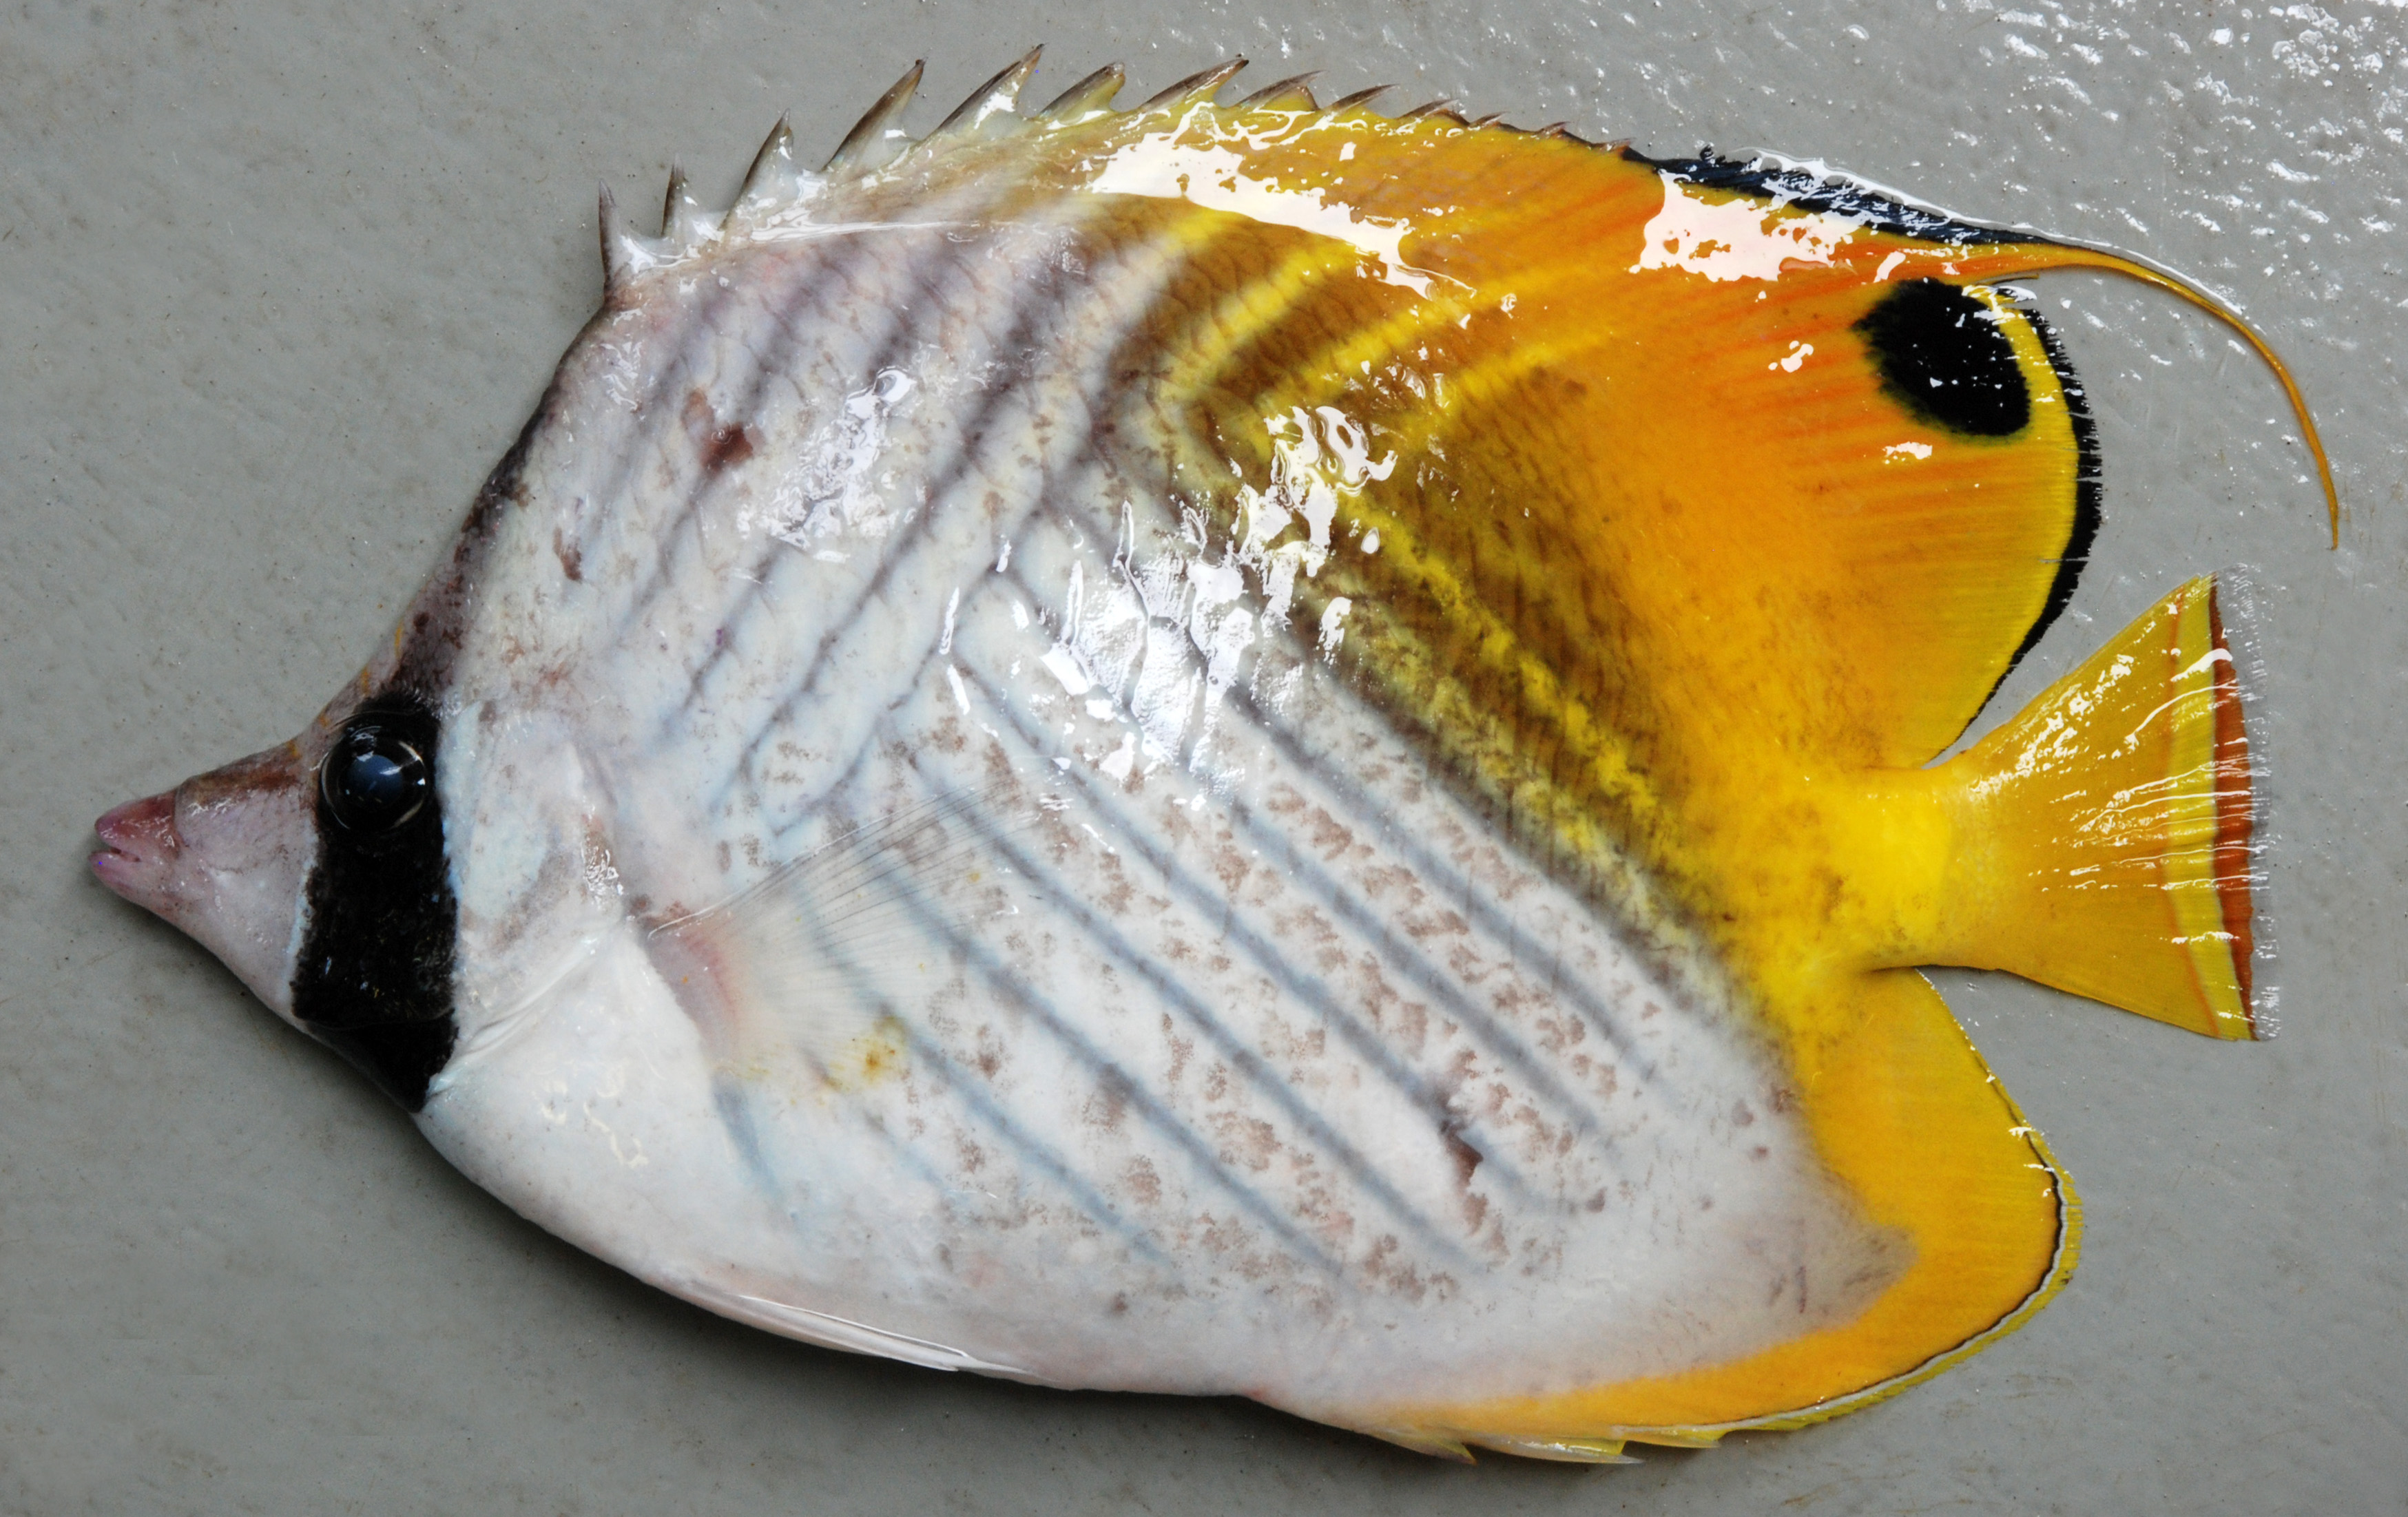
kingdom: Animalia
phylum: Chordata
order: Perciformes
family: Chaetodontidae
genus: Chaetodon
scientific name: Chaetodon auriga
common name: Threadfin butterflyfish
